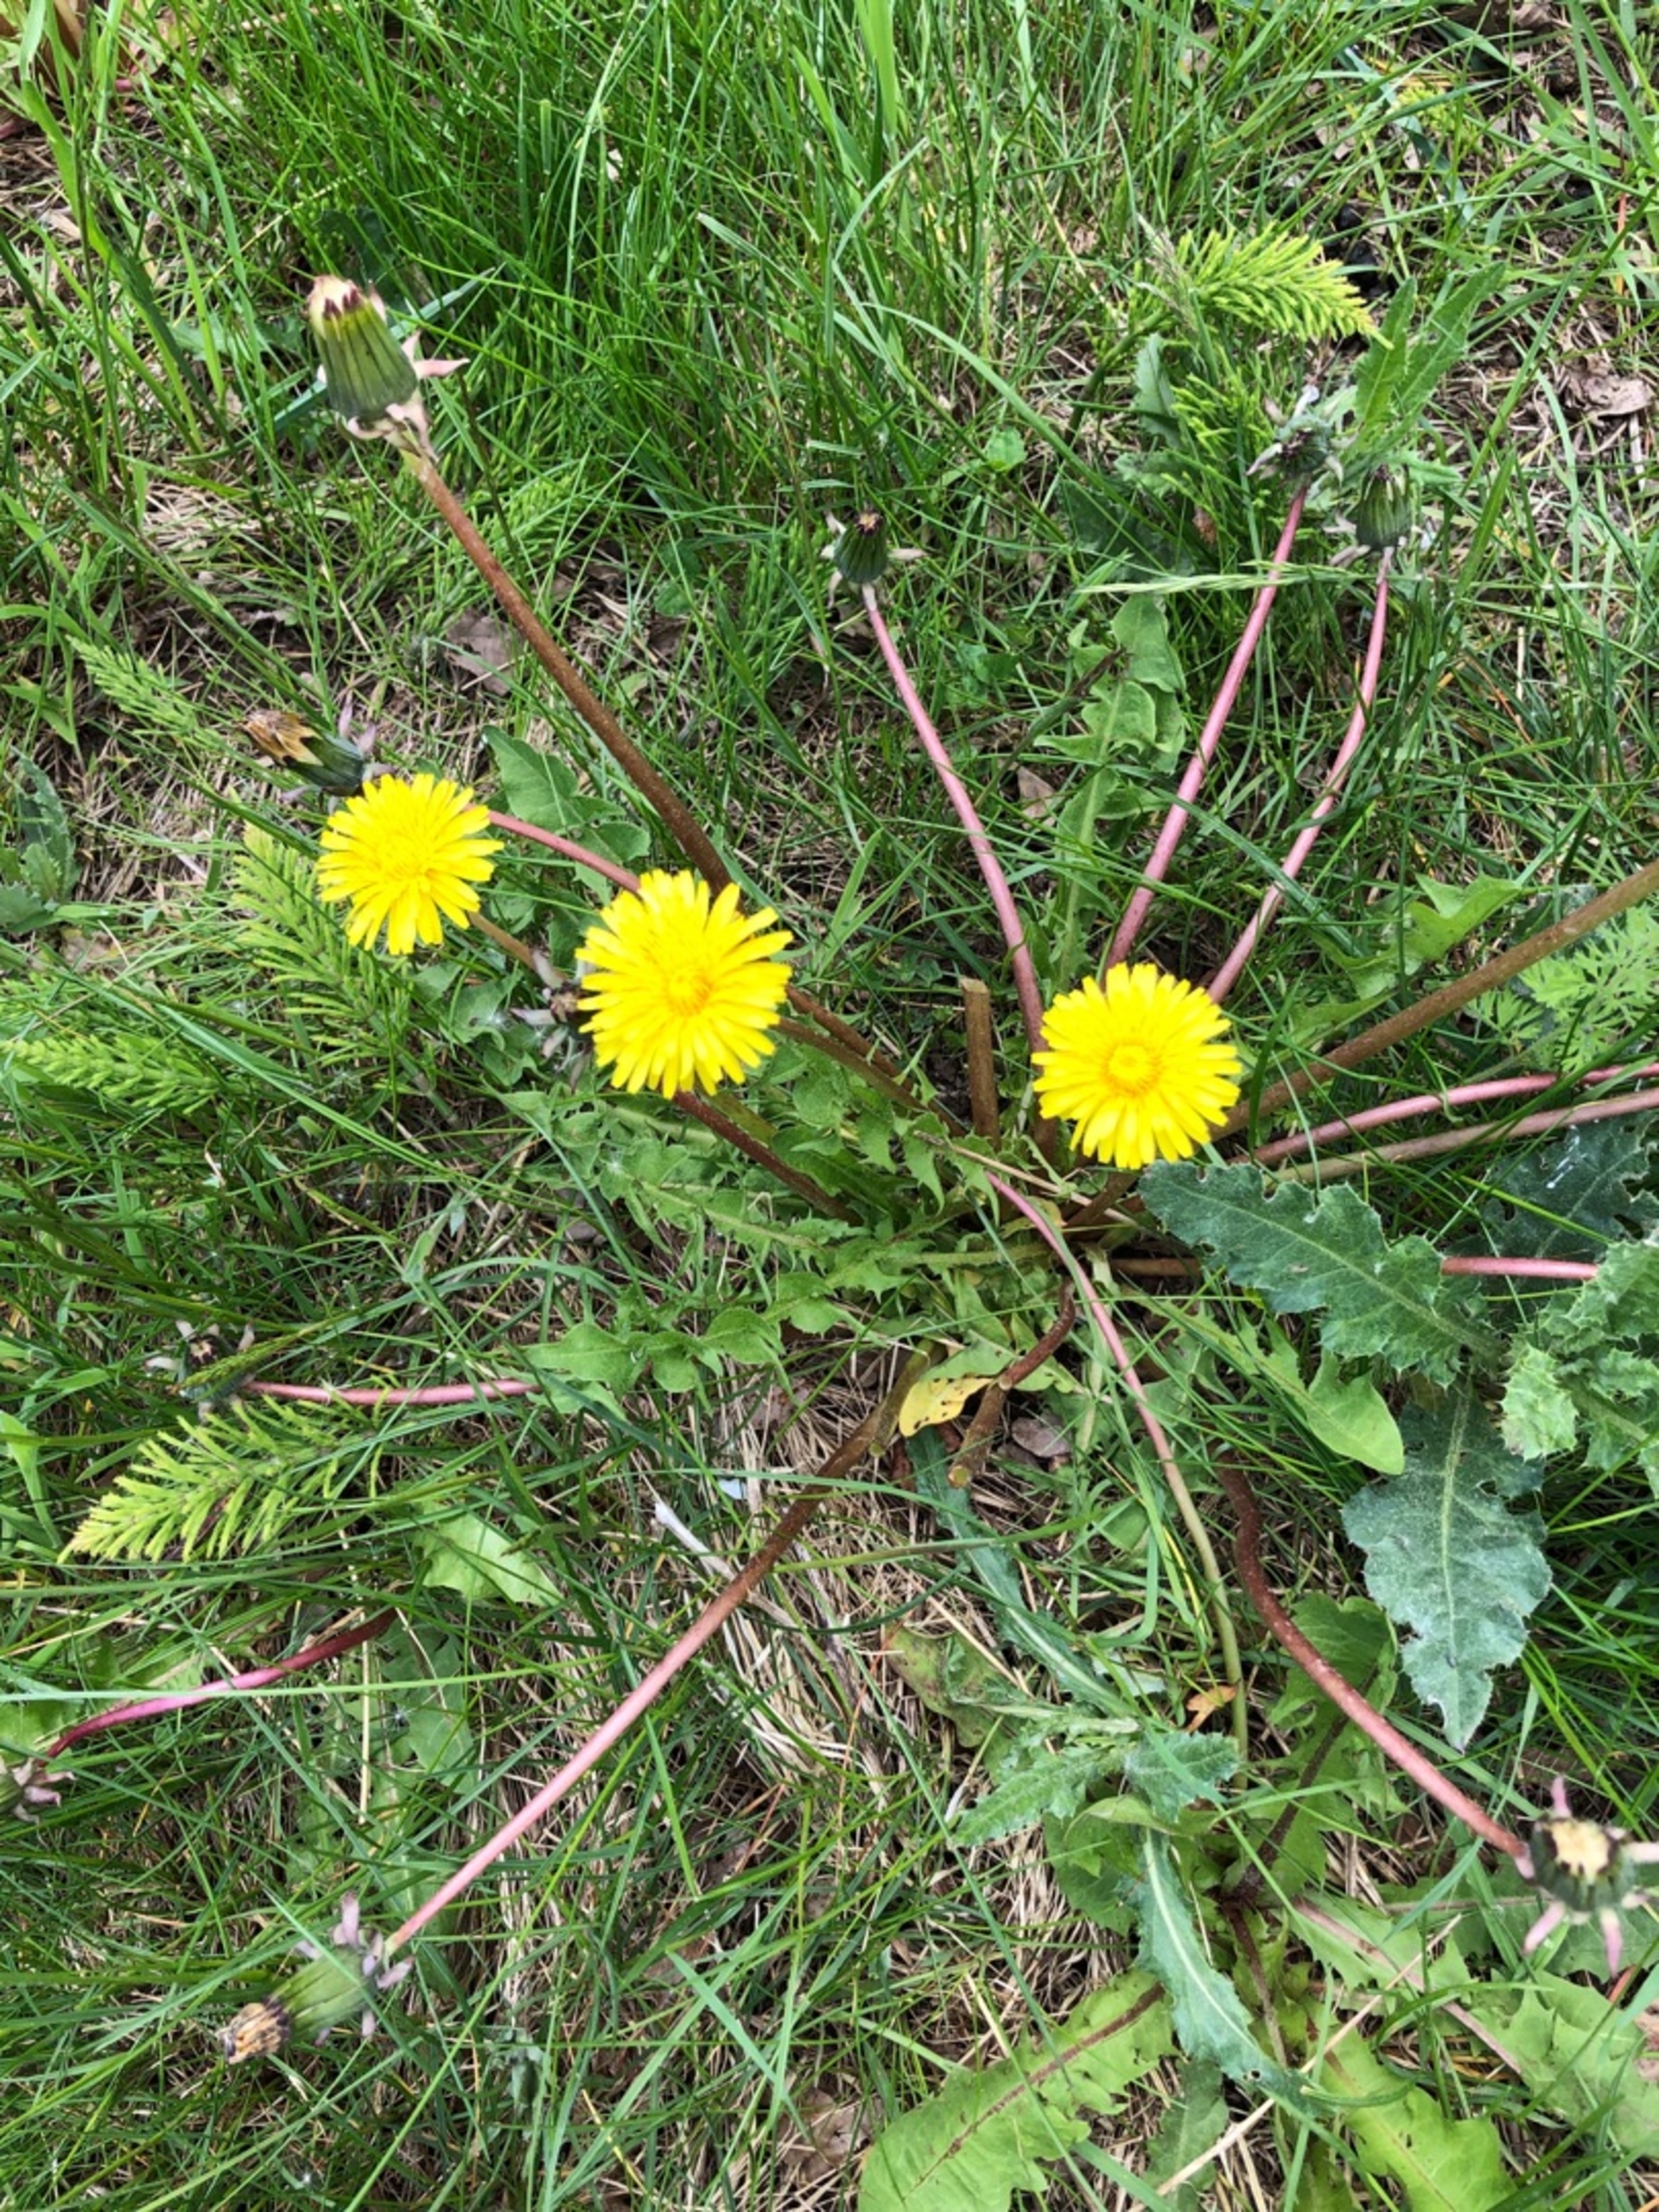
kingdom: Plantae
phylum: Tracheophyta
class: Magnoliopsida
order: Asterales
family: Asteraceae
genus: Taraxacum
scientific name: Taraxacum
